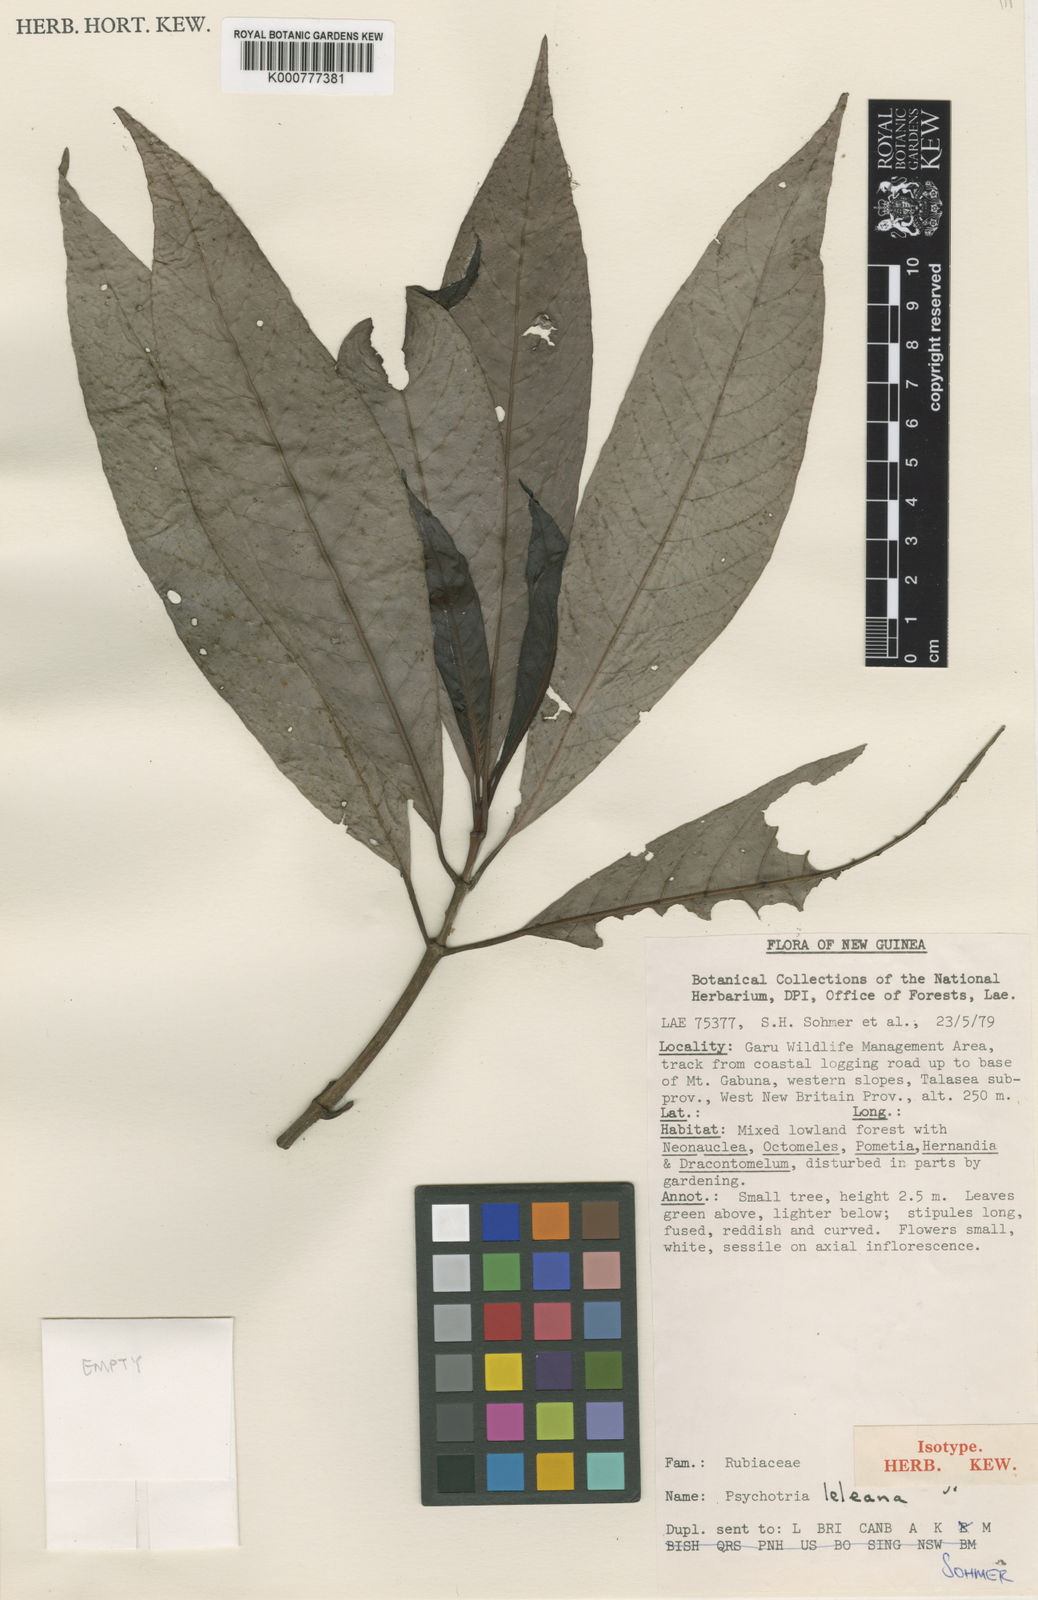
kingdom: Plantae
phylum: Tracheophyta
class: Magnoliopsida
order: Gentianales
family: Rubiaceae
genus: Psychotria
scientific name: Psychotria leleana
